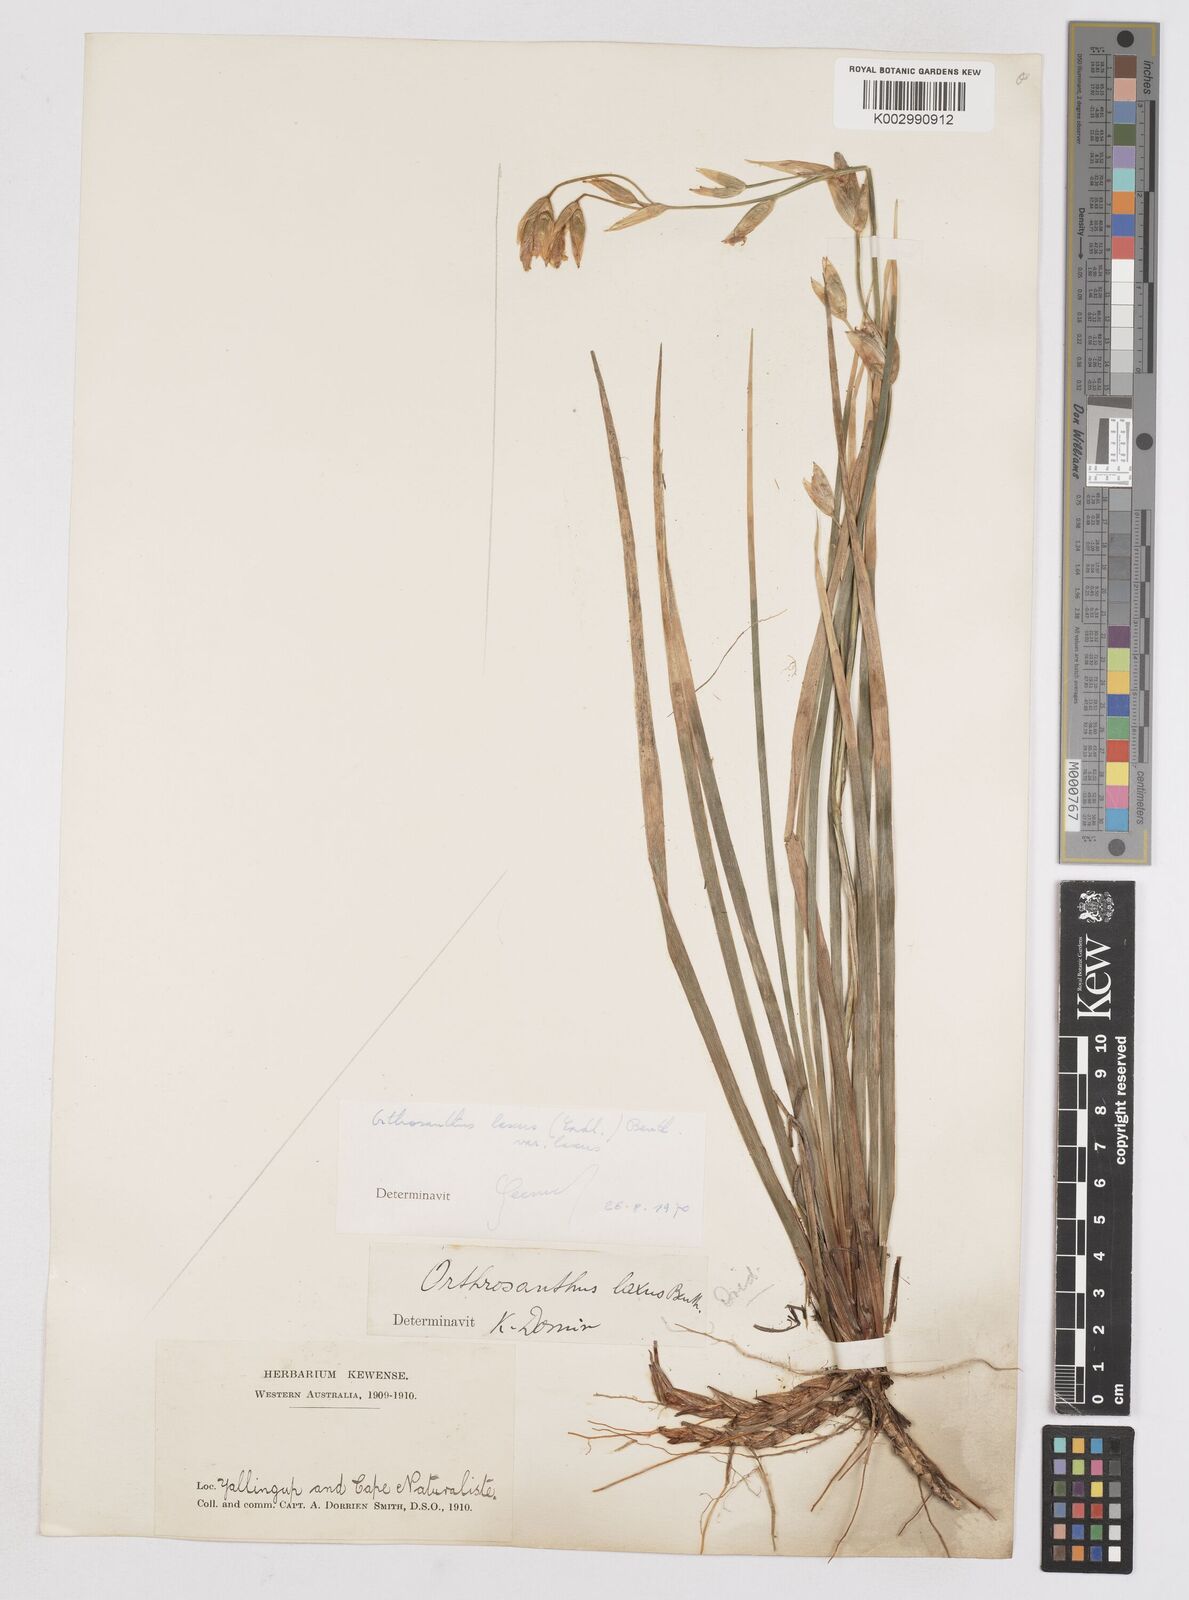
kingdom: Plantae
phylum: Tracheophyta
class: Liliopsida
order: Asparagales
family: Iridaceae
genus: Orthrosanthus
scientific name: Orthrosanthus laxus
